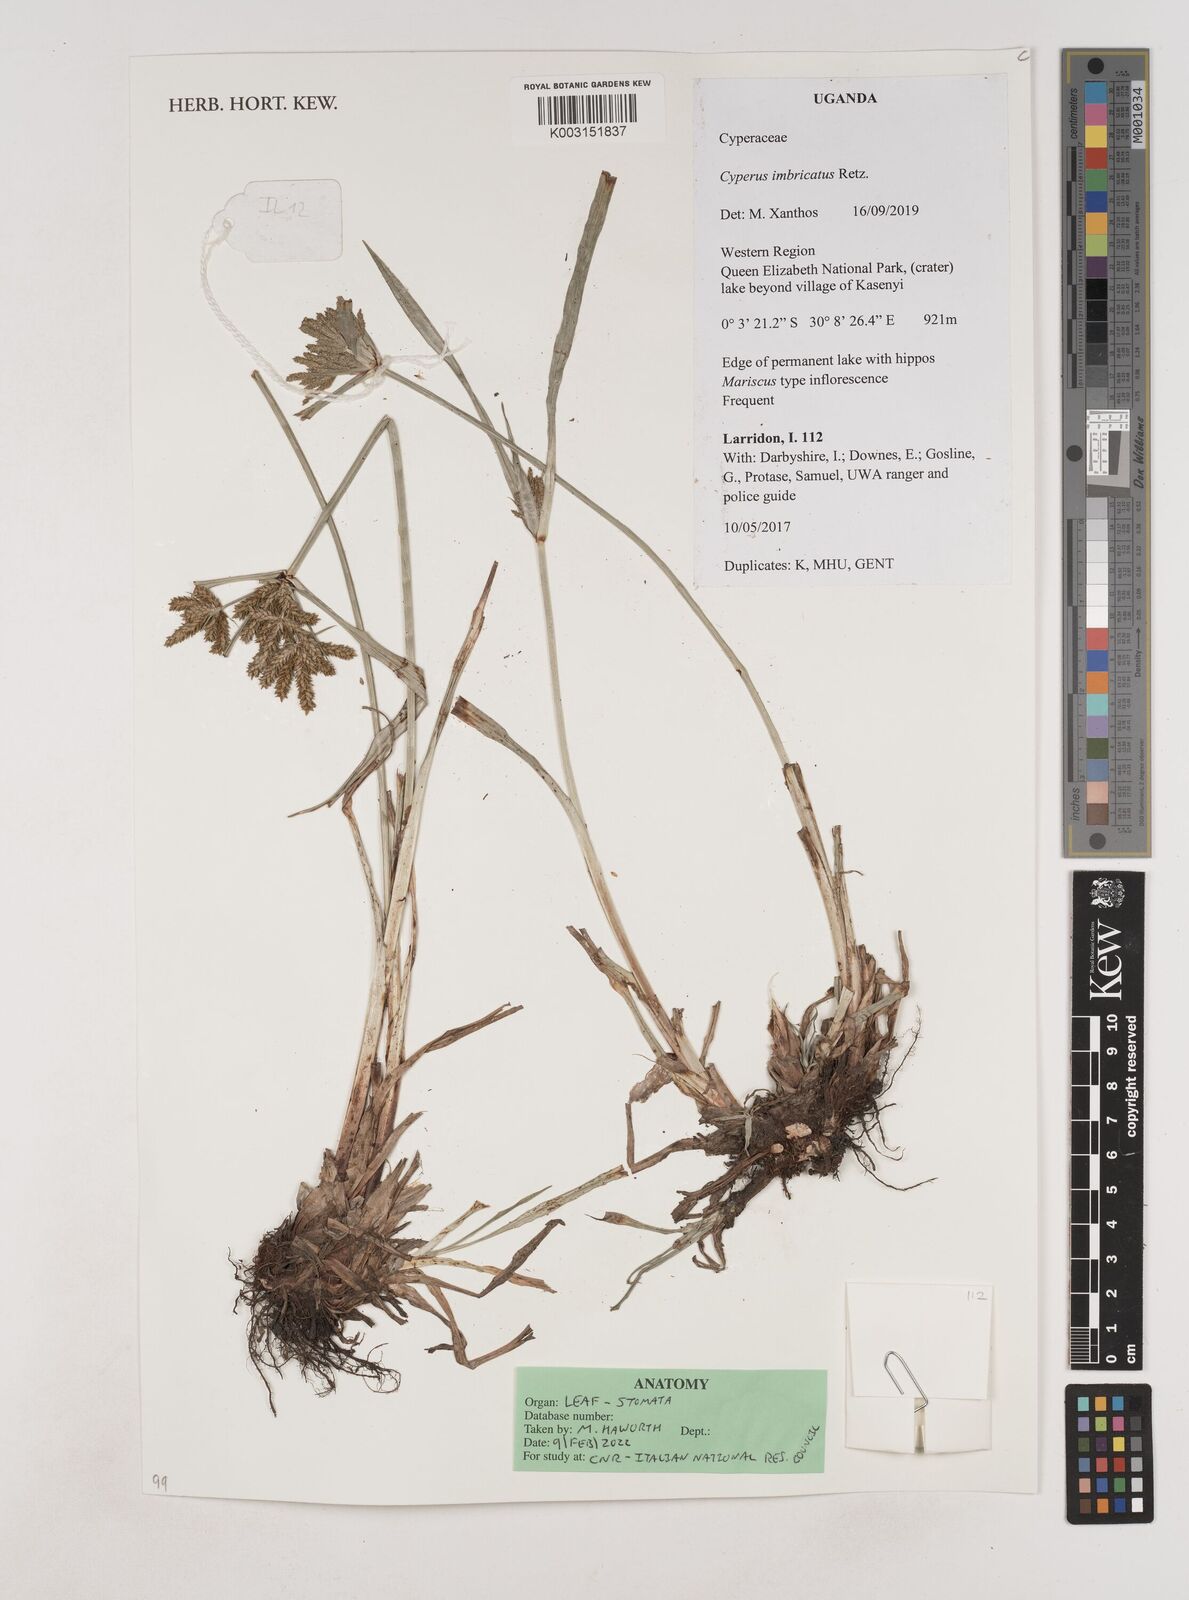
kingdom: Plantae
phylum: Tracheophyta
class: Liliopsida
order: Poales
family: Cyperaceae
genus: Cyperus
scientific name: Cyperus imbricatus
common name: Shingle flatsedge
